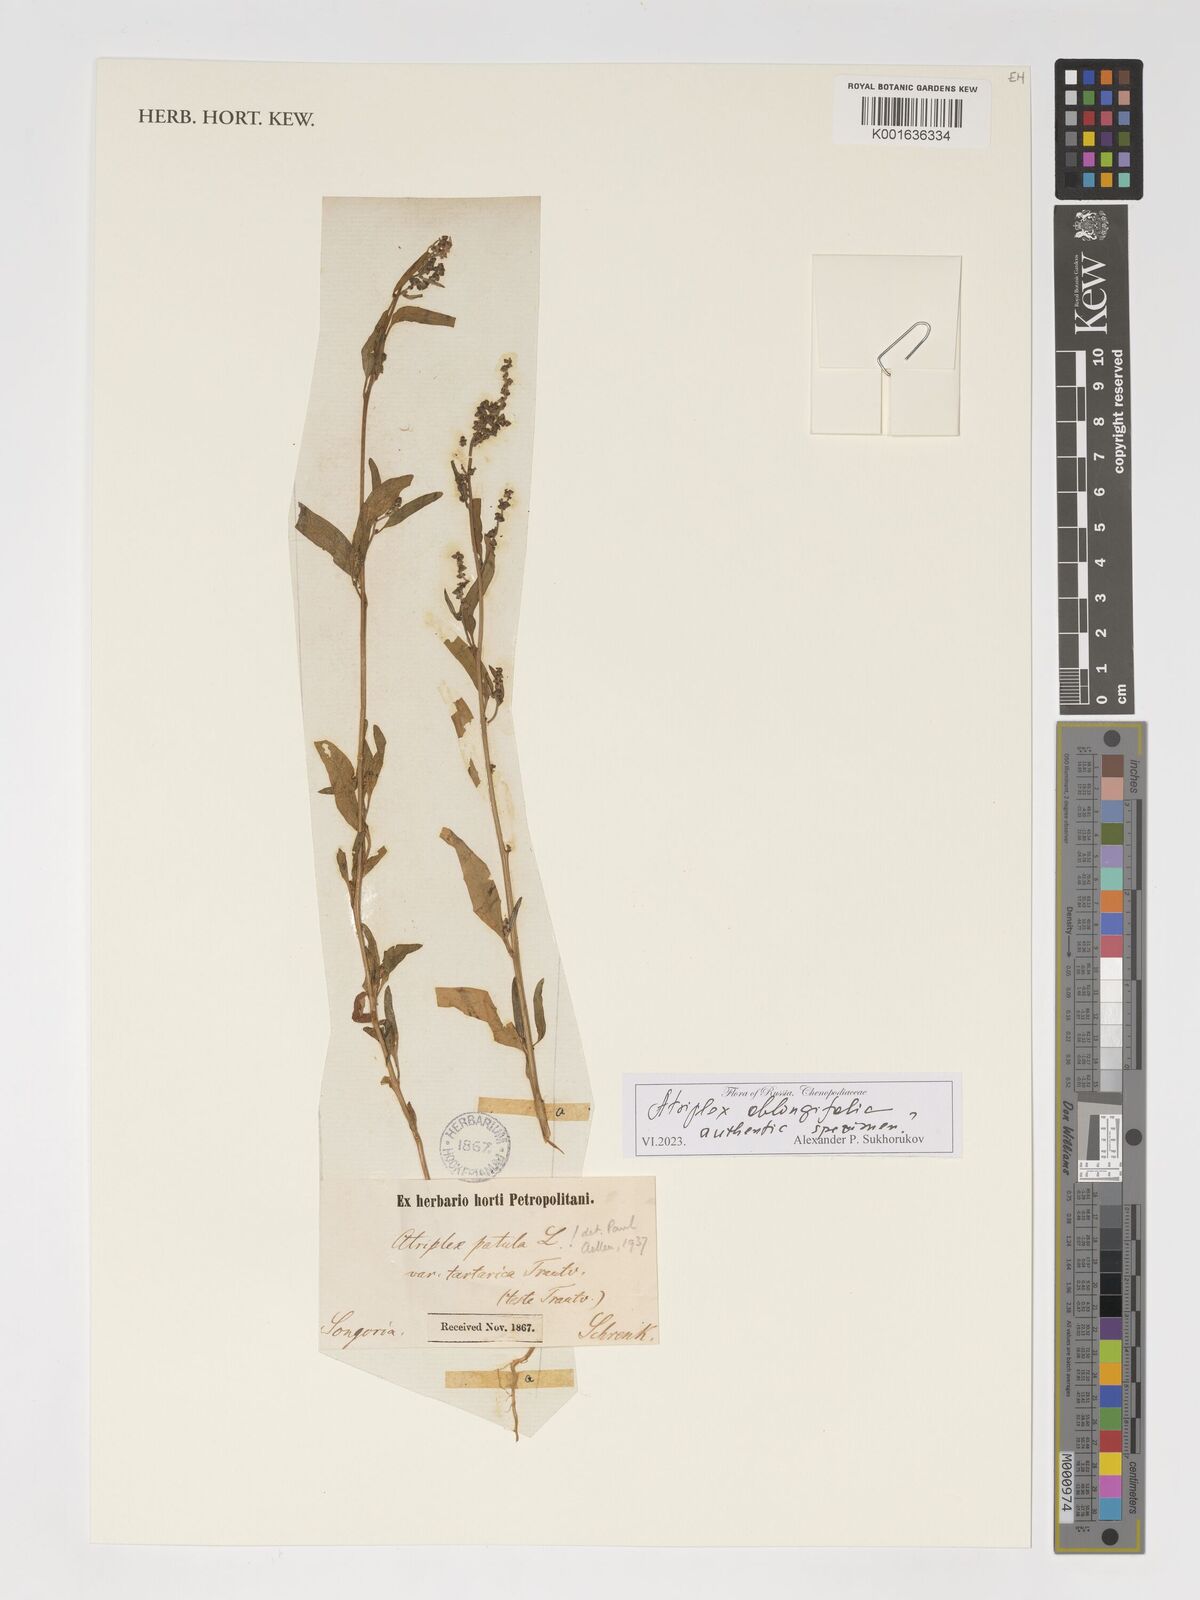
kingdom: Plantae
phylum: Tracheophyta
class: Magnoliopsida
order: Caryophyllales
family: Amaranthaceae
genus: Atriplex
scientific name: Atriplex oblongifolia
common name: Oblongleaf orache
